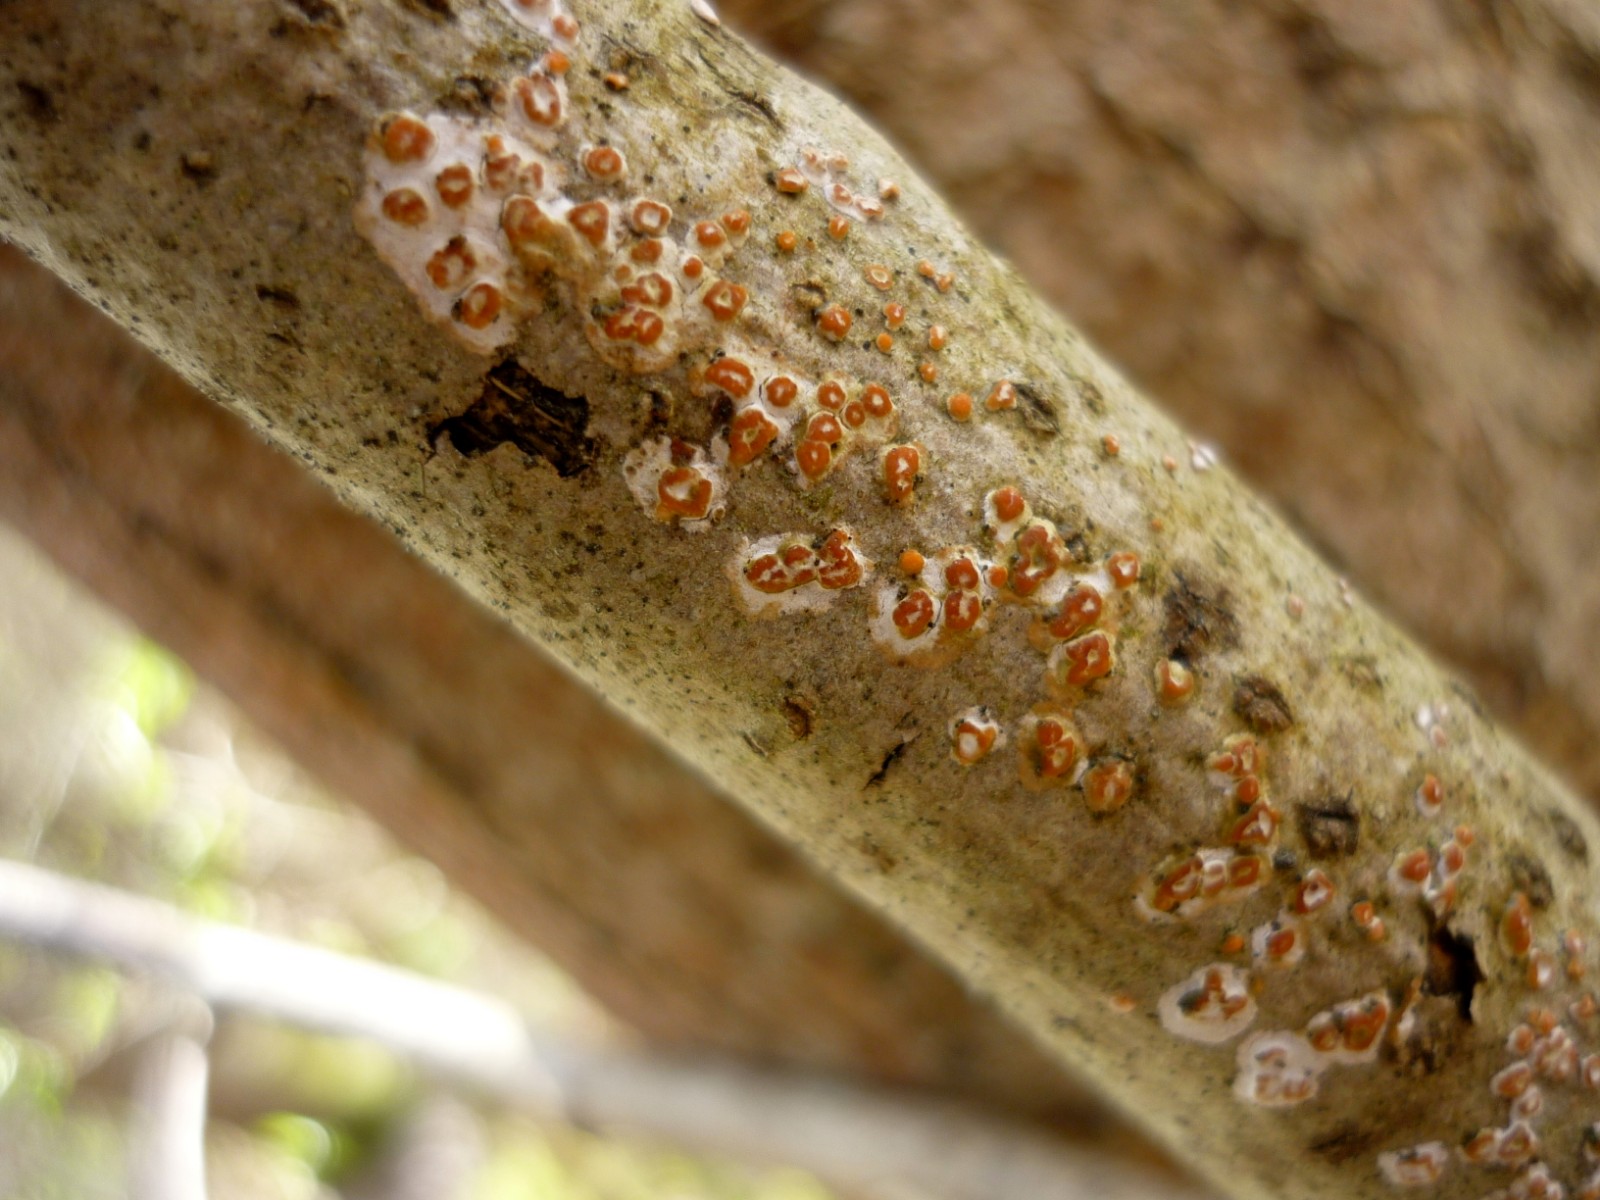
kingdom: Fungi
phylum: Basidiomycota
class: Agaricomycetes
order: Russulales
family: Peniophoraceae
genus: Peniophora
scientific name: Peniophora polygonia
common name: polygon-voksskind
